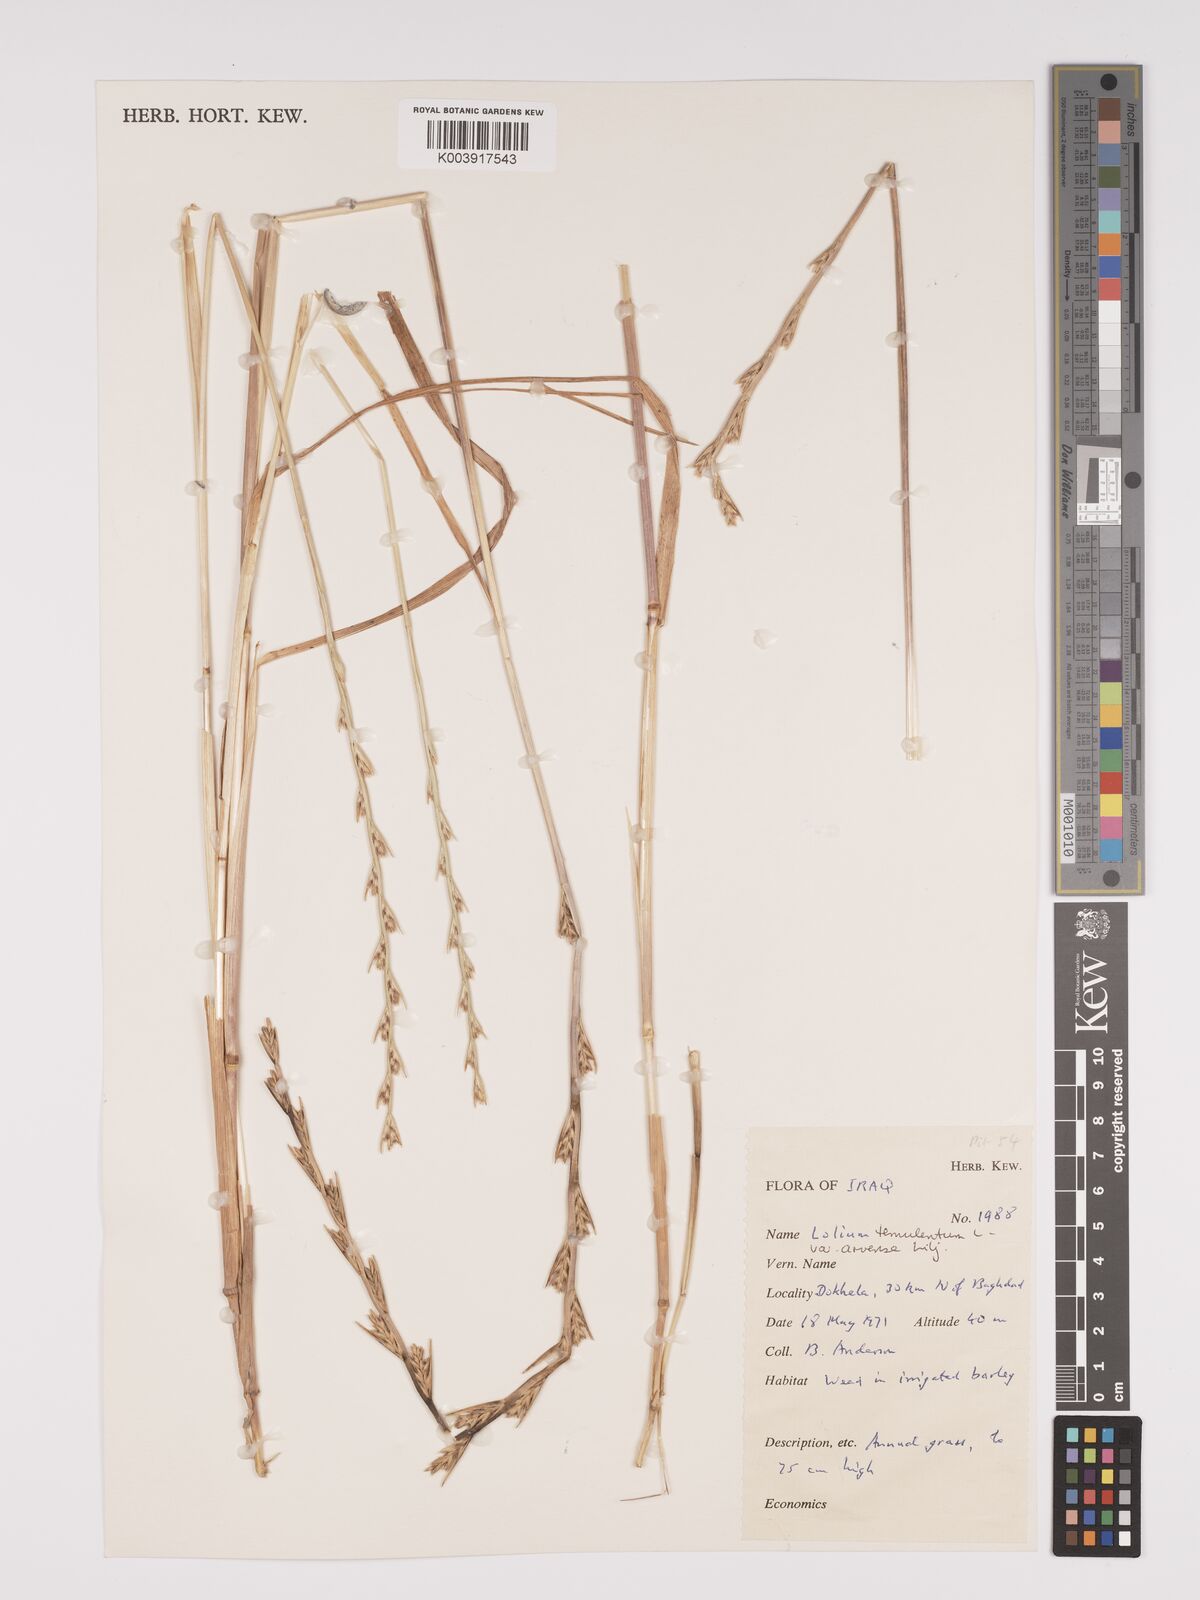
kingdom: Plantae
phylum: Tracheophyta
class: Liliopsida
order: Poales
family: Poaceae
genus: Lolium
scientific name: Lolium temulentum
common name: Darnel
